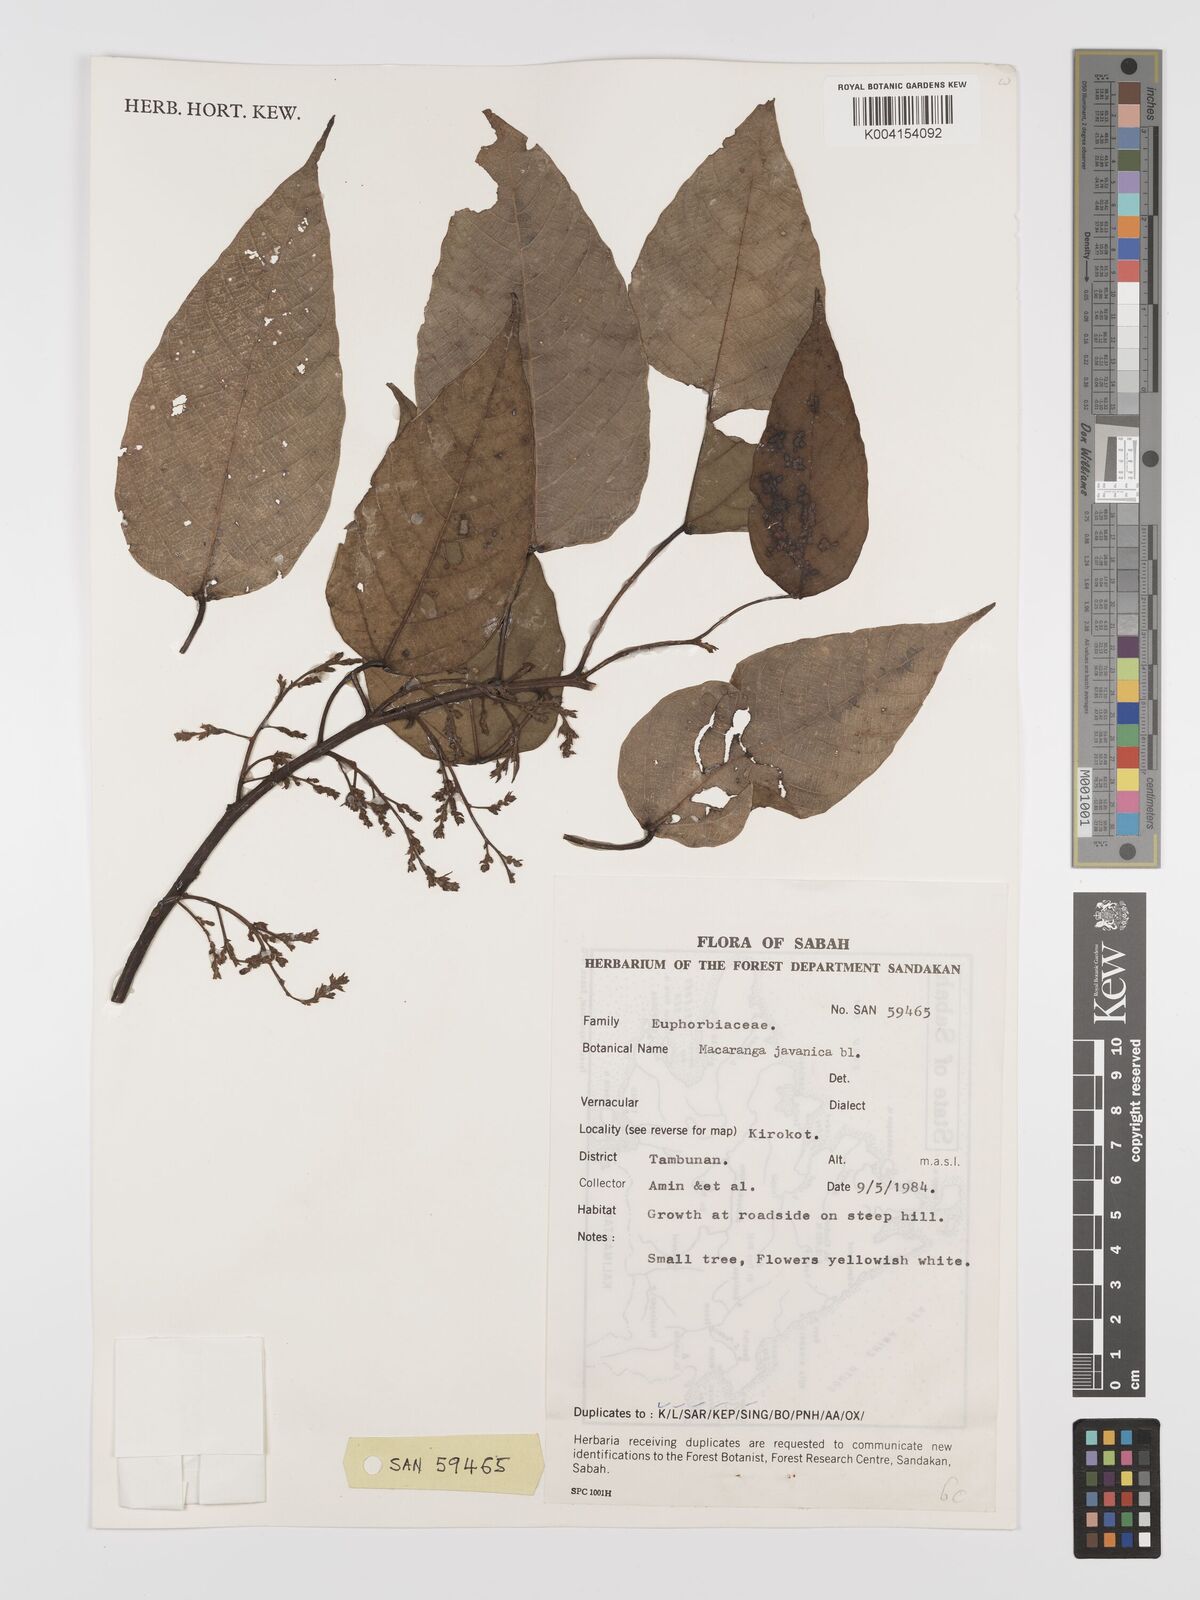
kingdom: Plantae
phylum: Tracheophyta
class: Magnoliopsida
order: Malpighiales
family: Euphorbiaceae
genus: Macaranga
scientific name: Macaranga kinabaluensis
